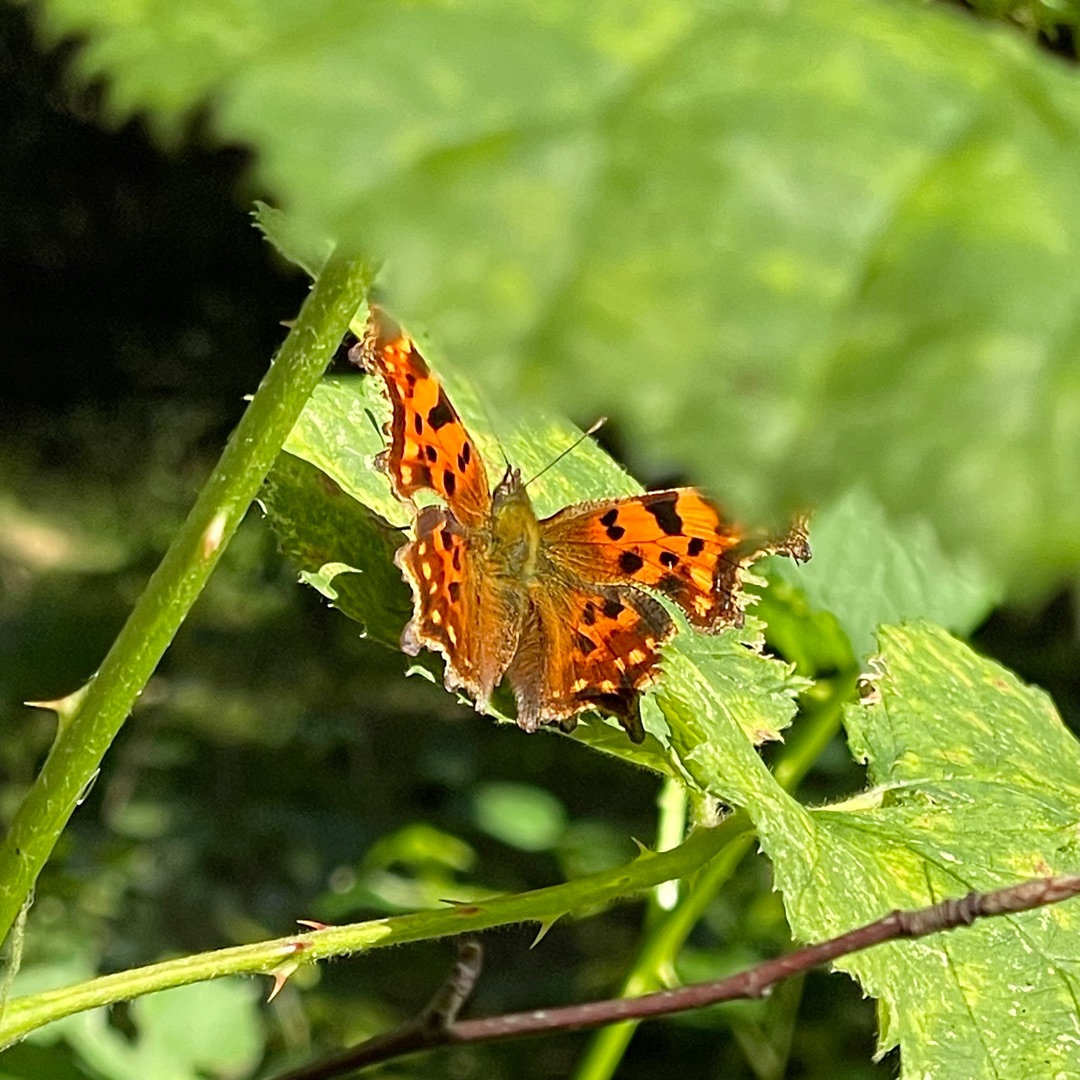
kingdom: Animalia
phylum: Arthropoda
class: Insecta
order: Lepidoptera
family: Nymphalidae
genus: Polygonia
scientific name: Polygonia c-album
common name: Det hvide C
